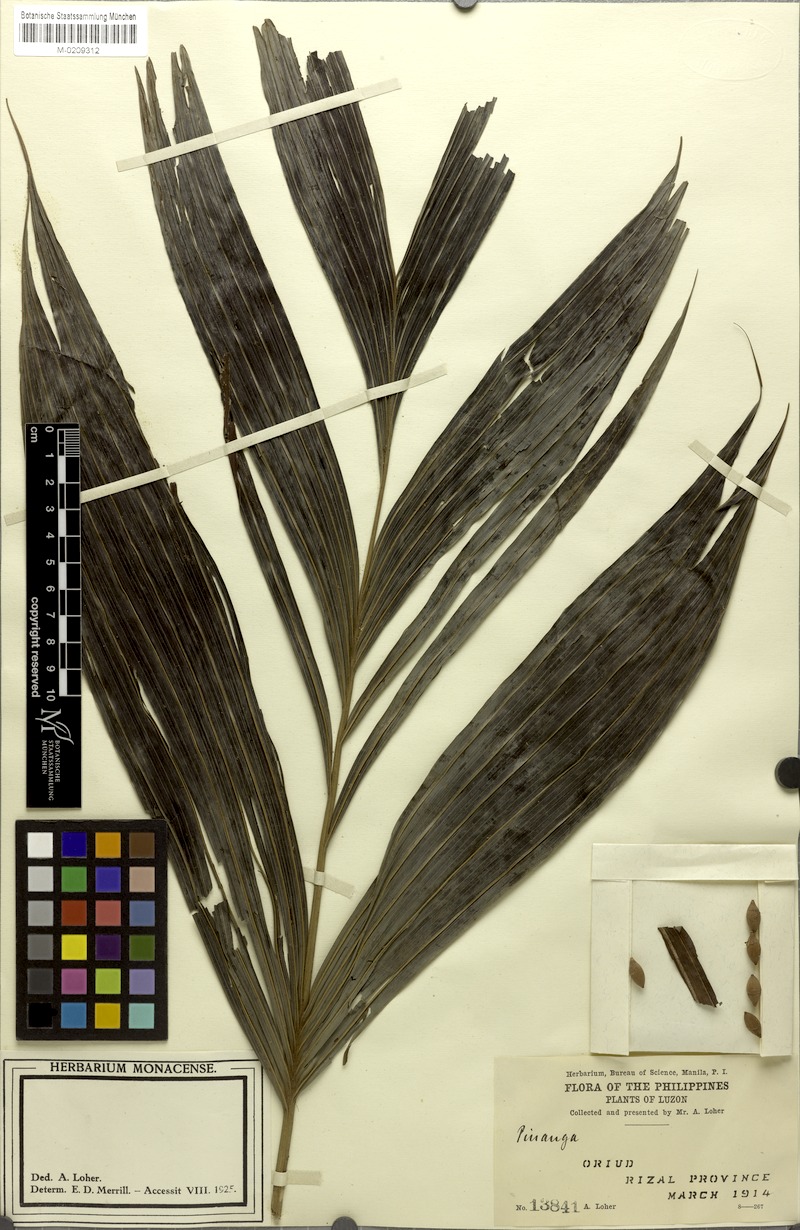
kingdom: Plantae
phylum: Tracheophyta
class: Liliopsida
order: Arecales
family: Arecaceae
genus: Pinanga
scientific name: Pinanga
